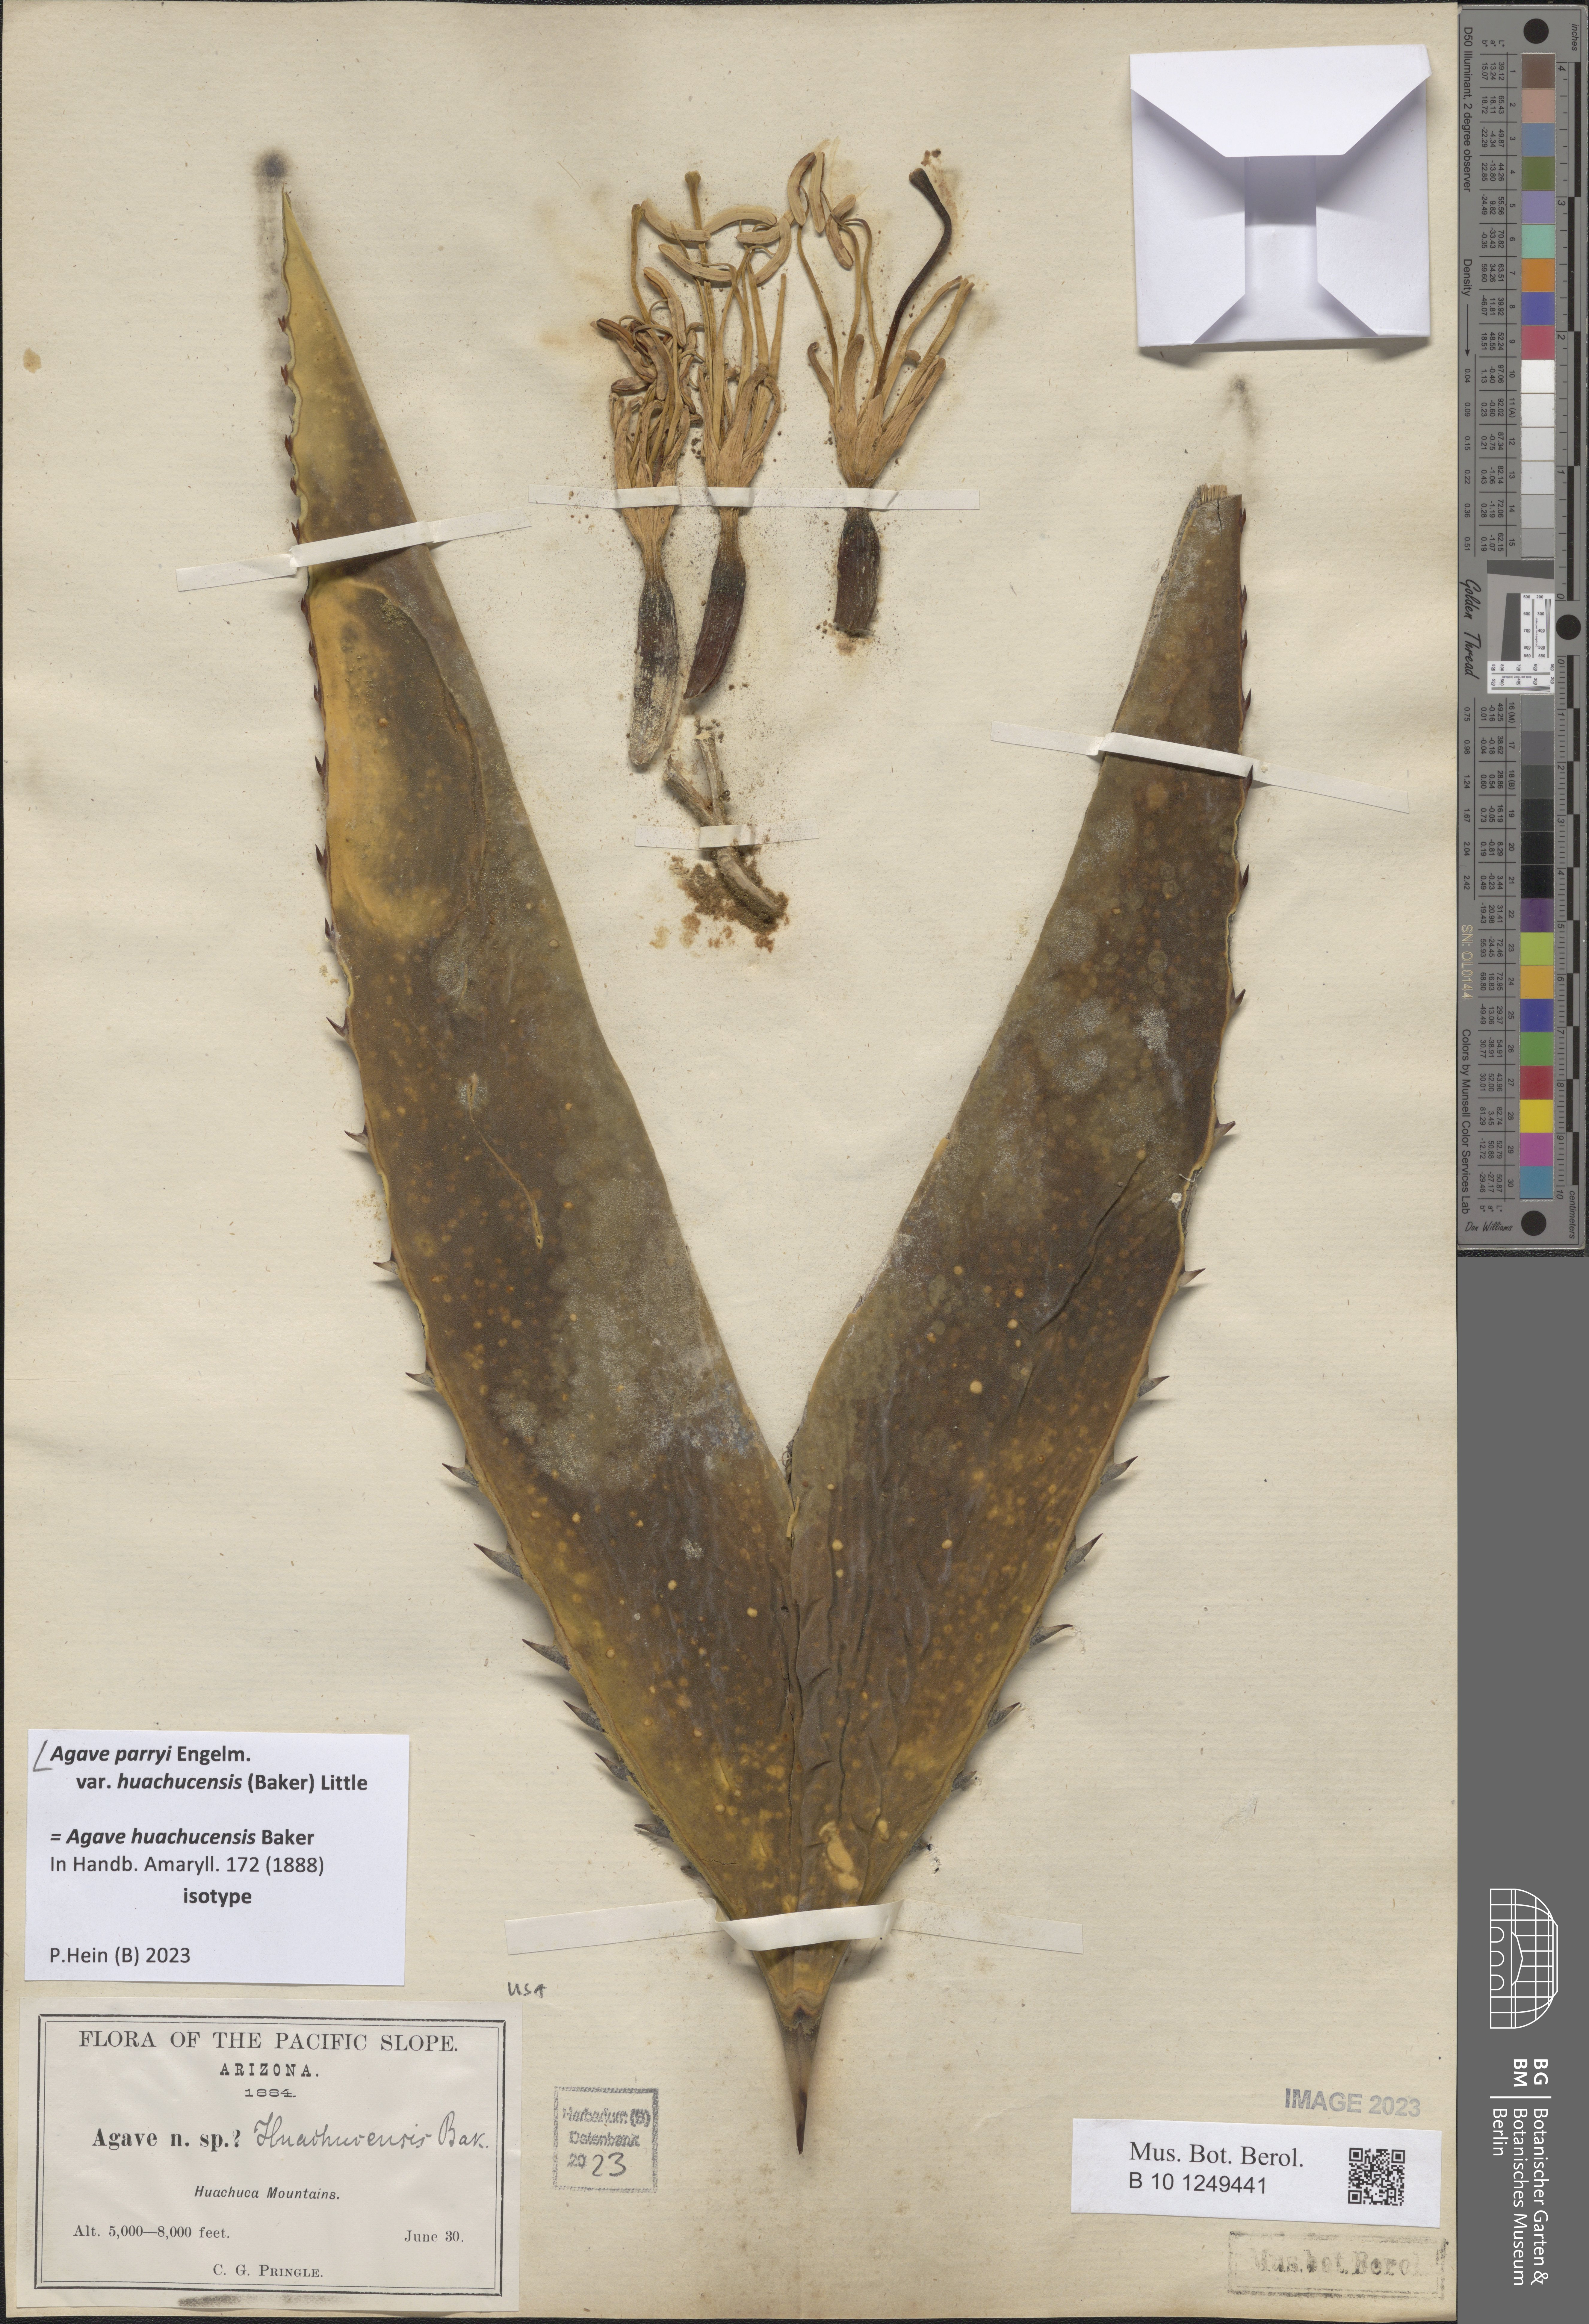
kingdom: Plantae
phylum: Tracheophyta
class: Liliopsida
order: Asparagales
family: Asparagaceae
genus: Agave
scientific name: Agave parryi
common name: Parry's agave
